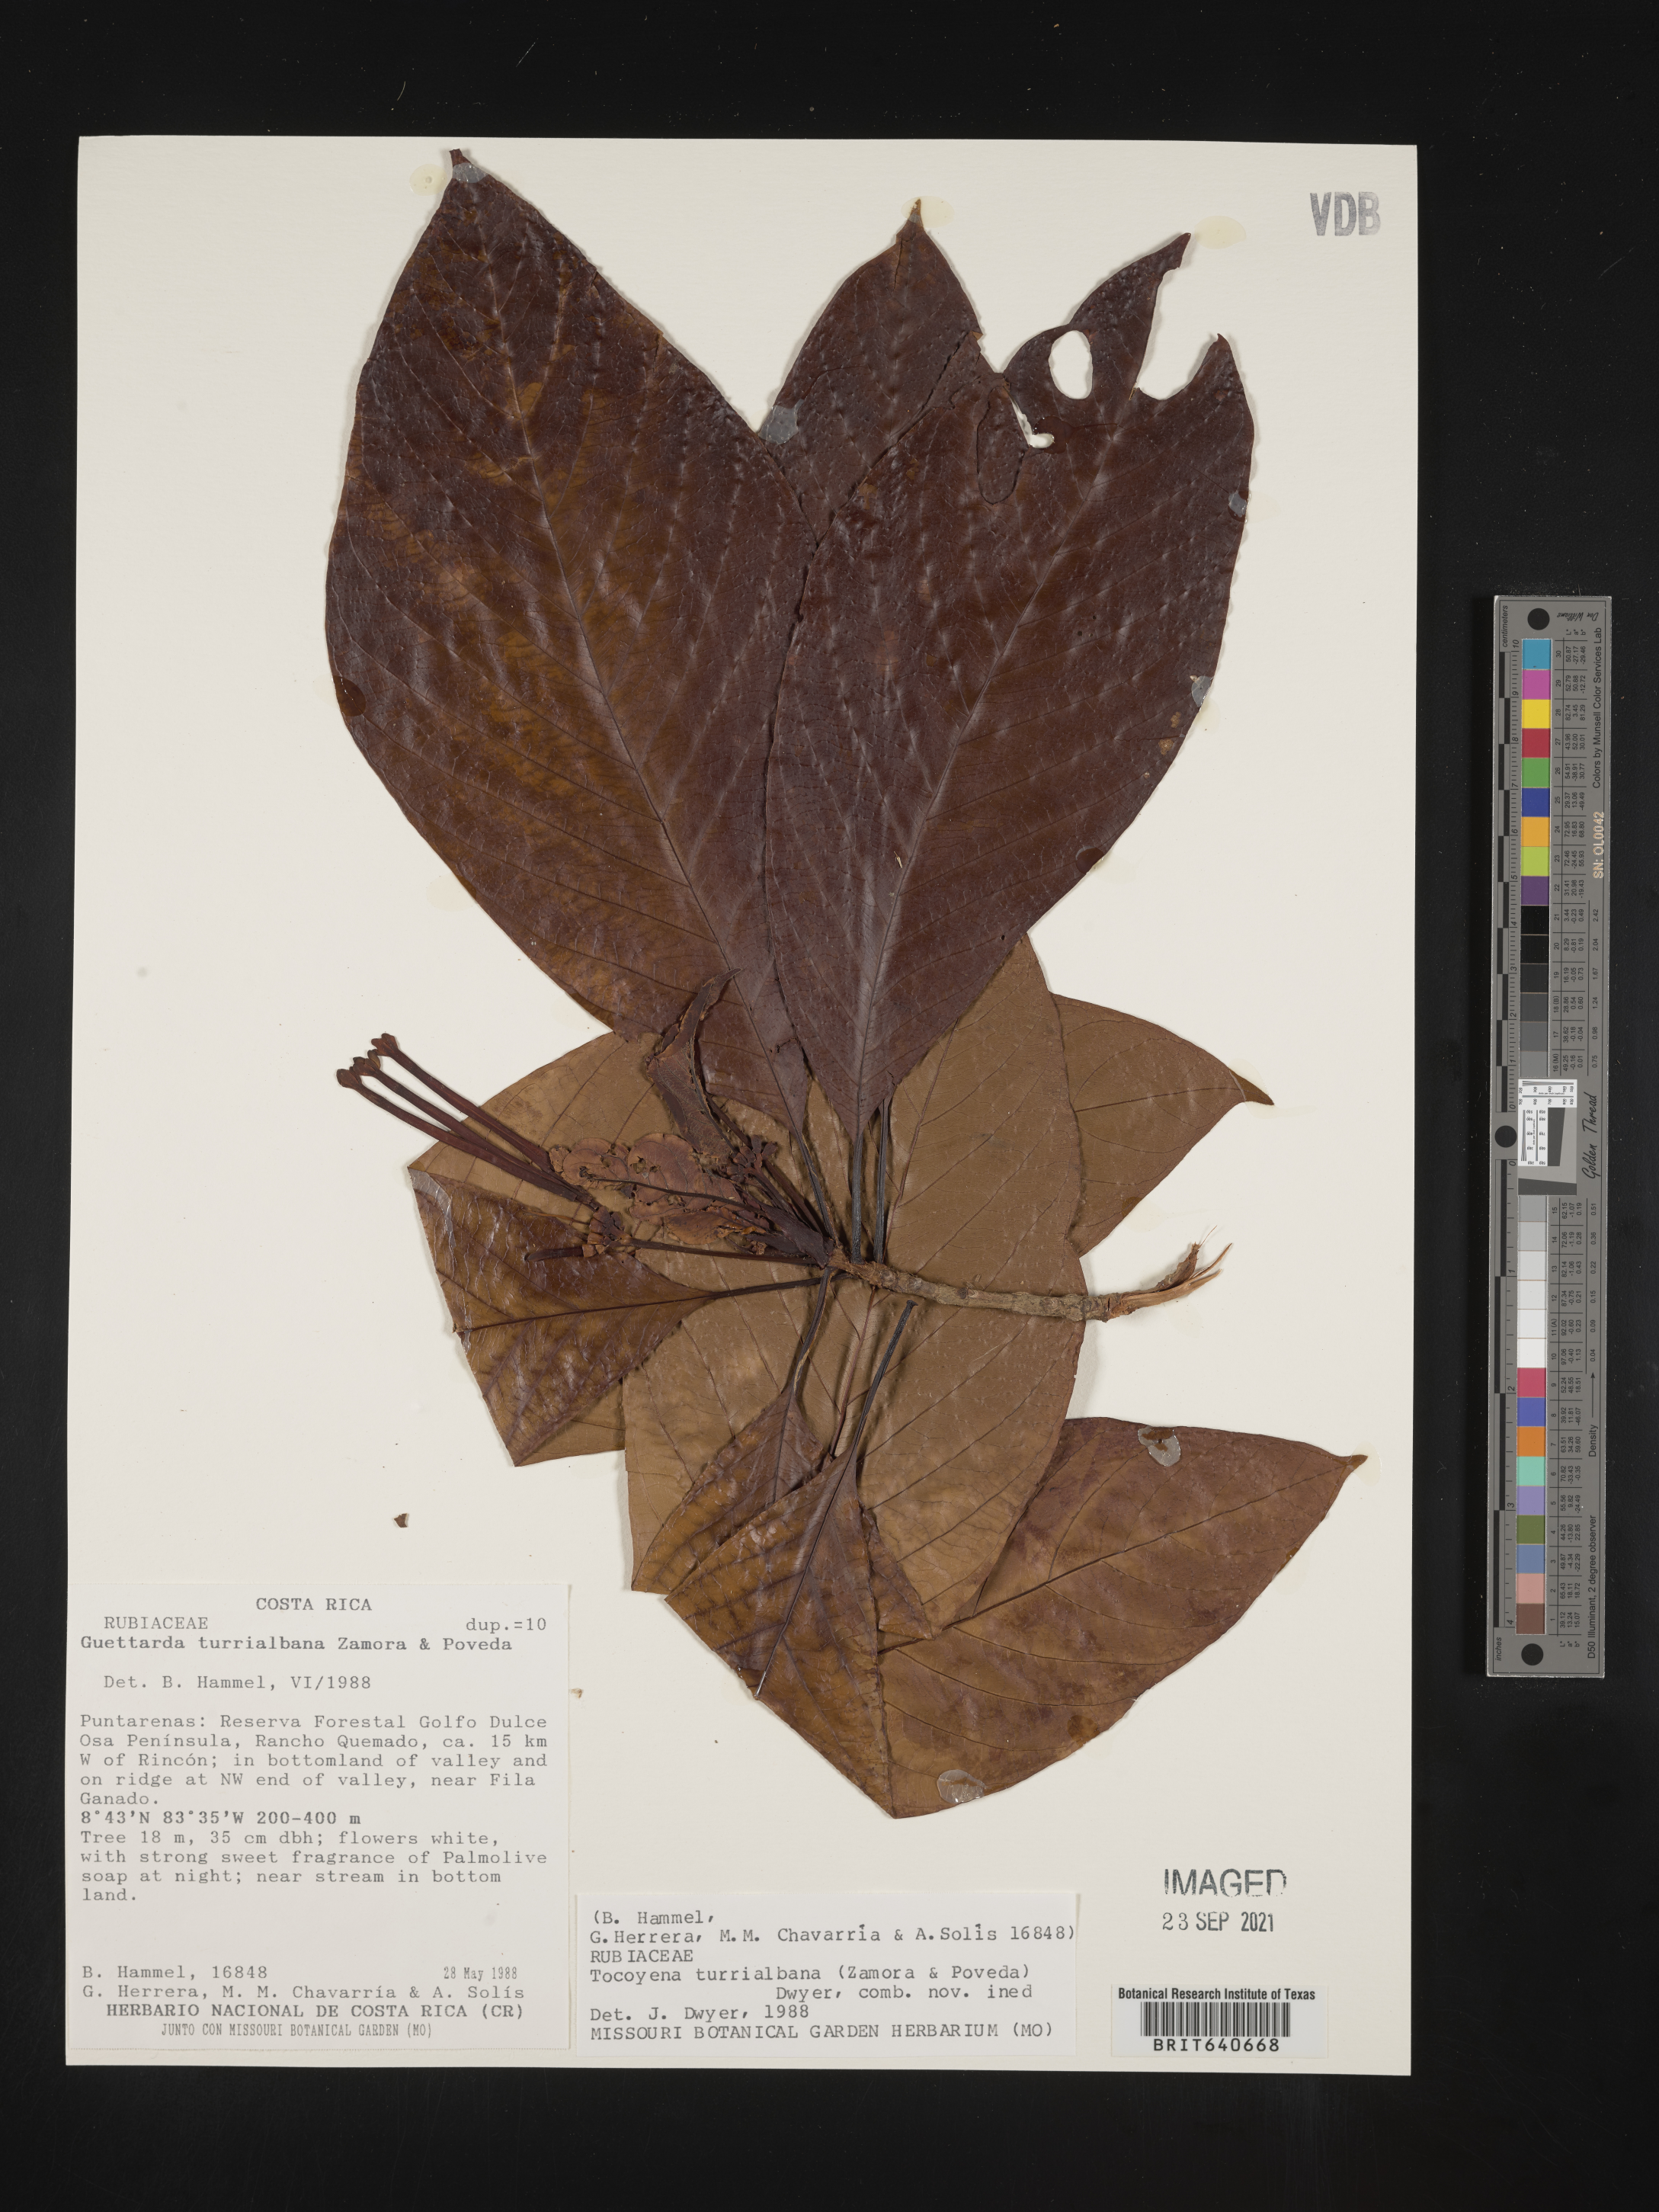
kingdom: Plantae
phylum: Tracheophyta
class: Magnoliopsida
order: Gentianales
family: Rubiaceae
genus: Guettarda
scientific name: Guettarda
